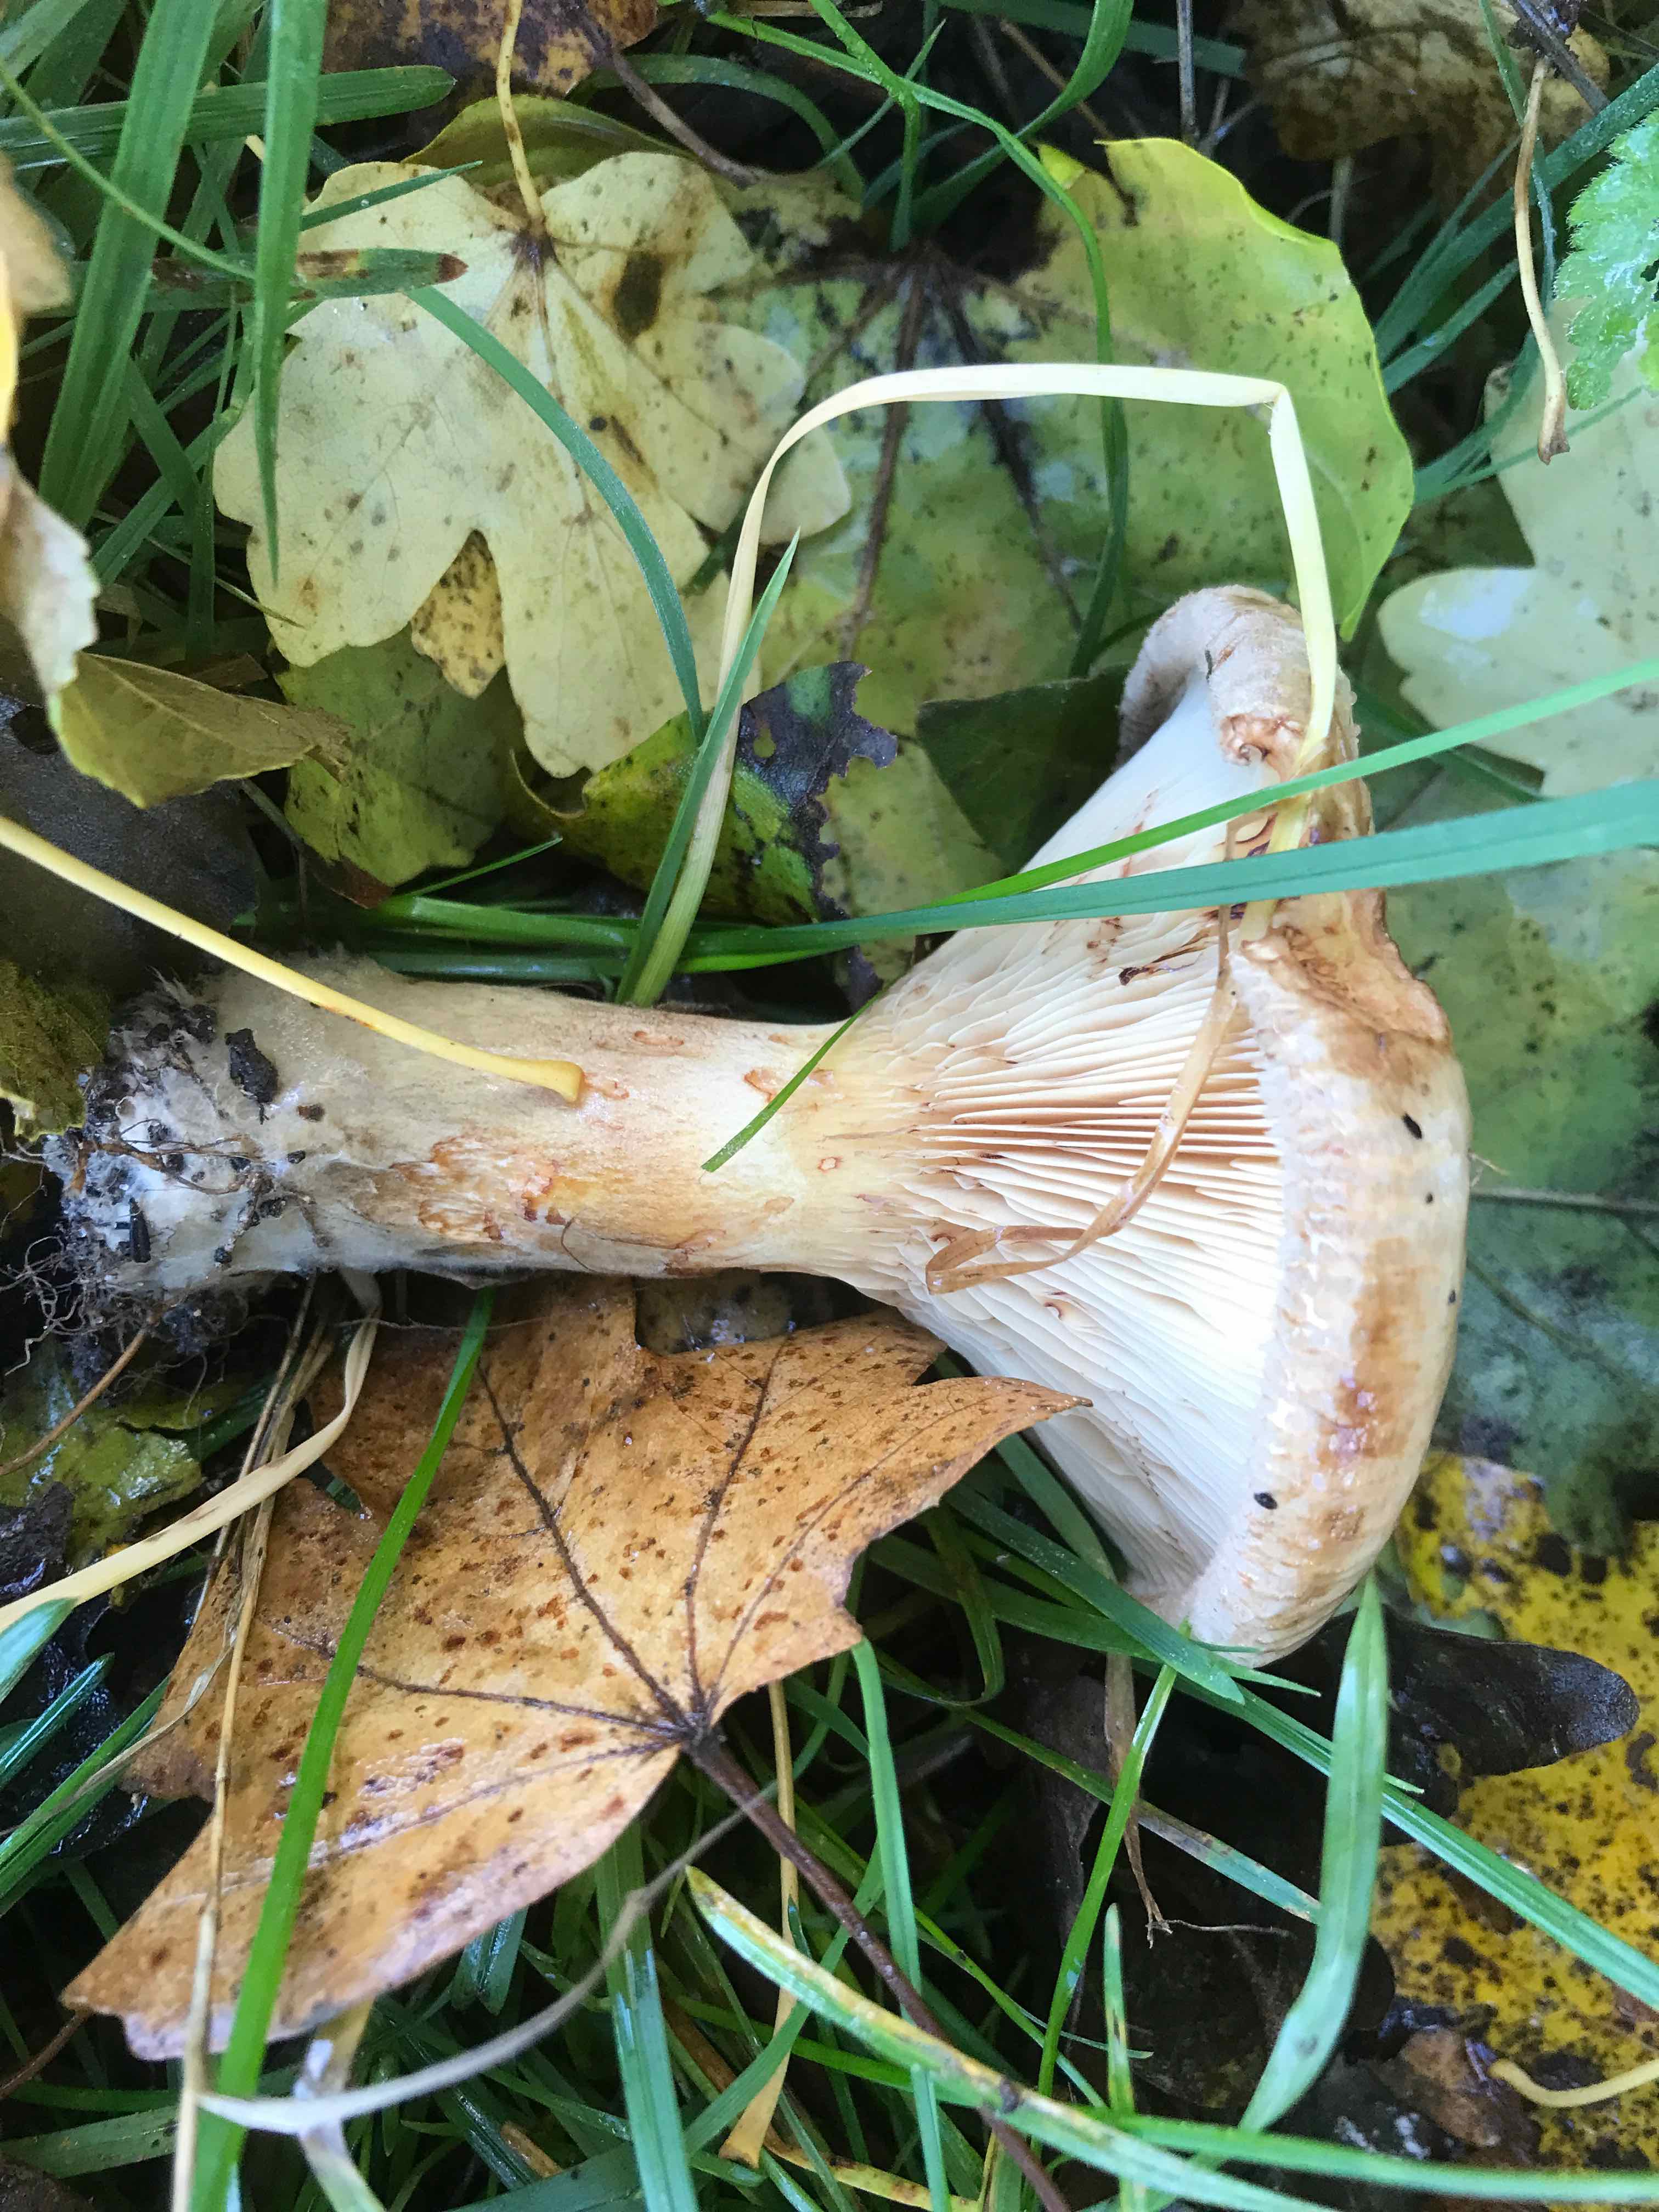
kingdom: Fungi
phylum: Basidiomycota
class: Agaricomycetes
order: Boletales
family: Paxillaceae
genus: Paxillus
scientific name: Paxillus involutus
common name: almindelig netbladhat
